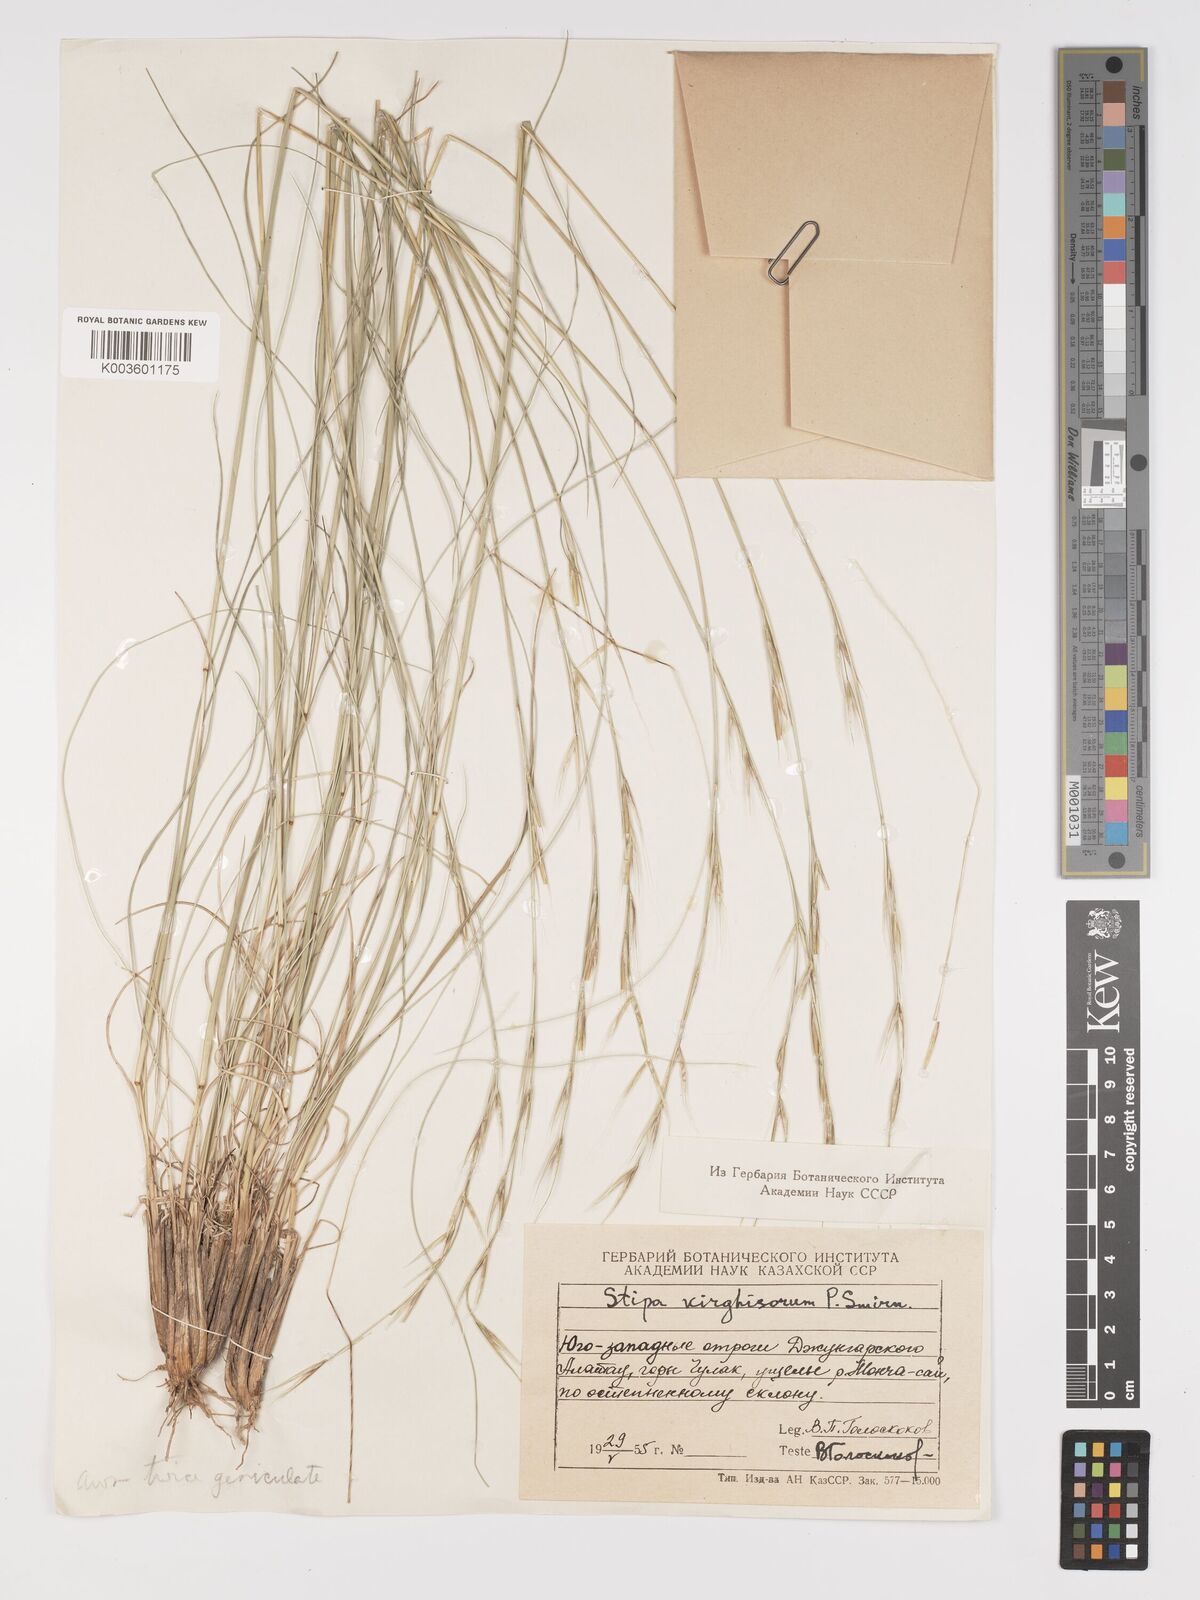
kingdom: Plantae
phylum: Tracheophyta
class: Liliopsida
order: Poales
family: Poaceae
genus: Stipa
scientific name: Stipa kirghisorum
